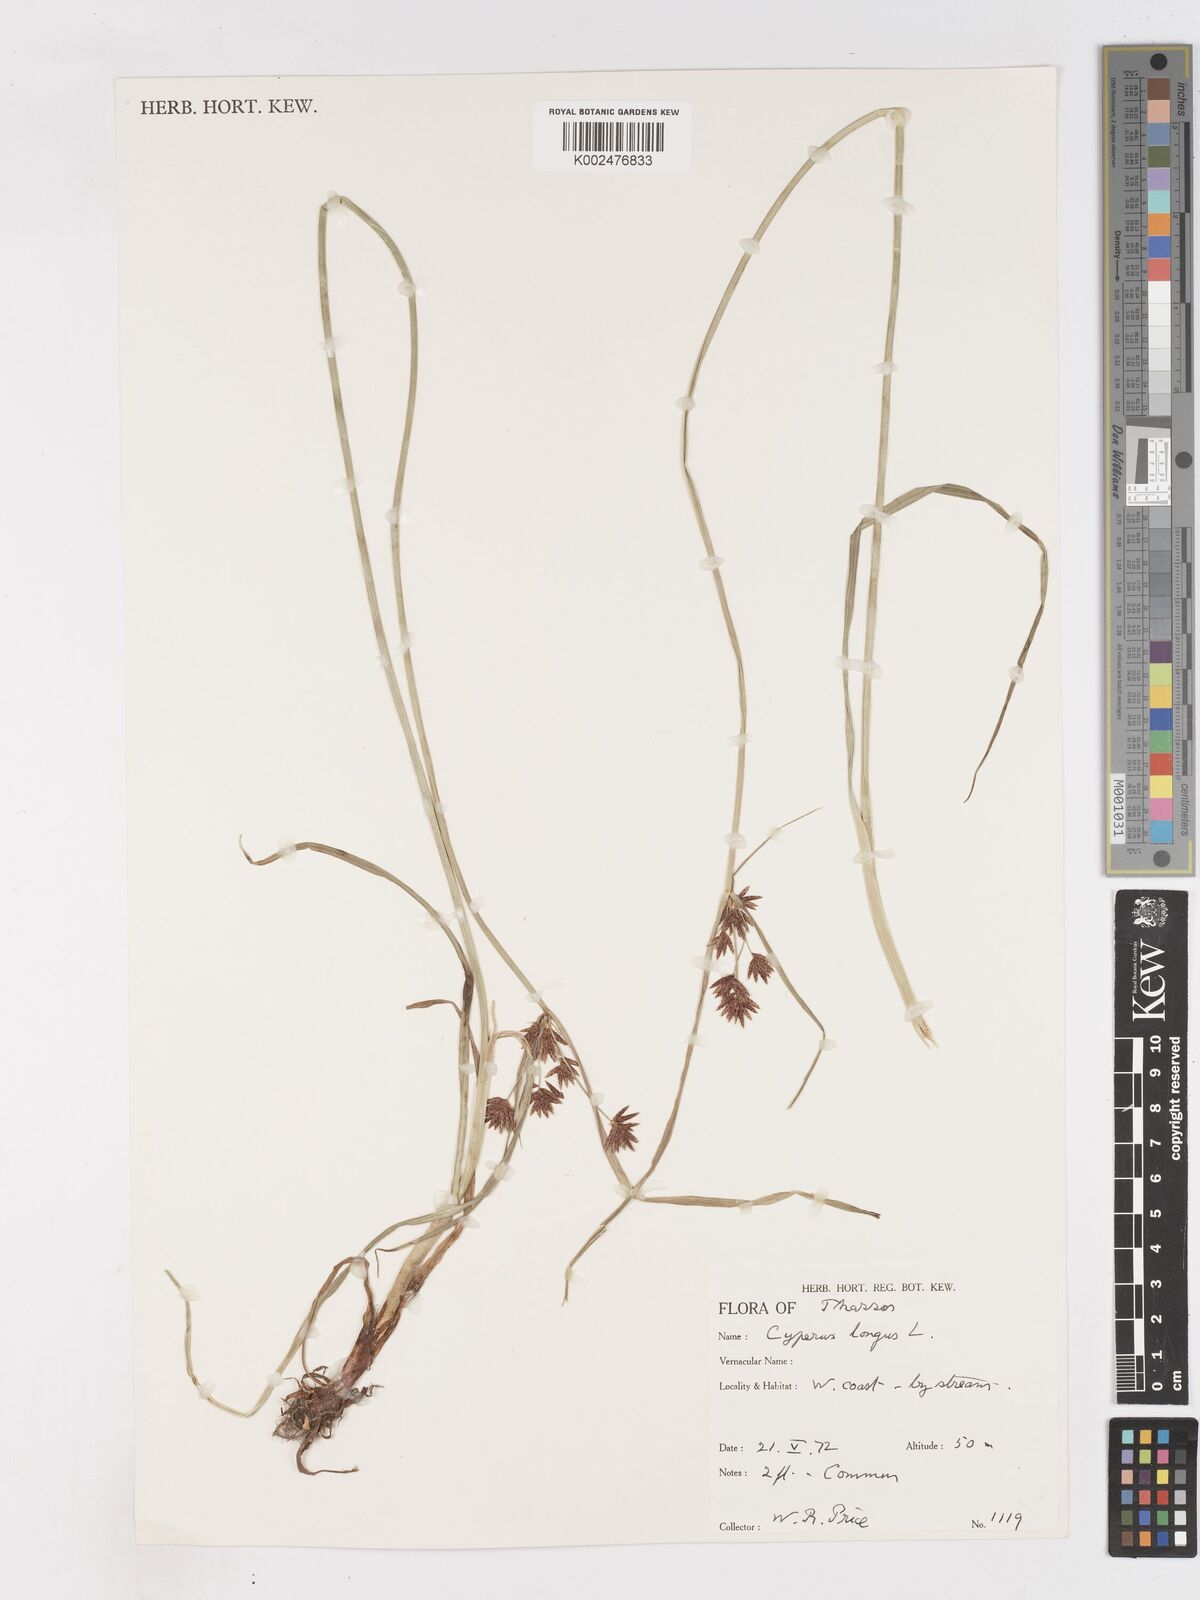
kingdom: Plantae
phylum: Tracheophyta
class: Liliopsida
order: Poales
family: Cyperaceae
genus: Cyperus
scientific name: Cyperus longus
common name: Galingale
